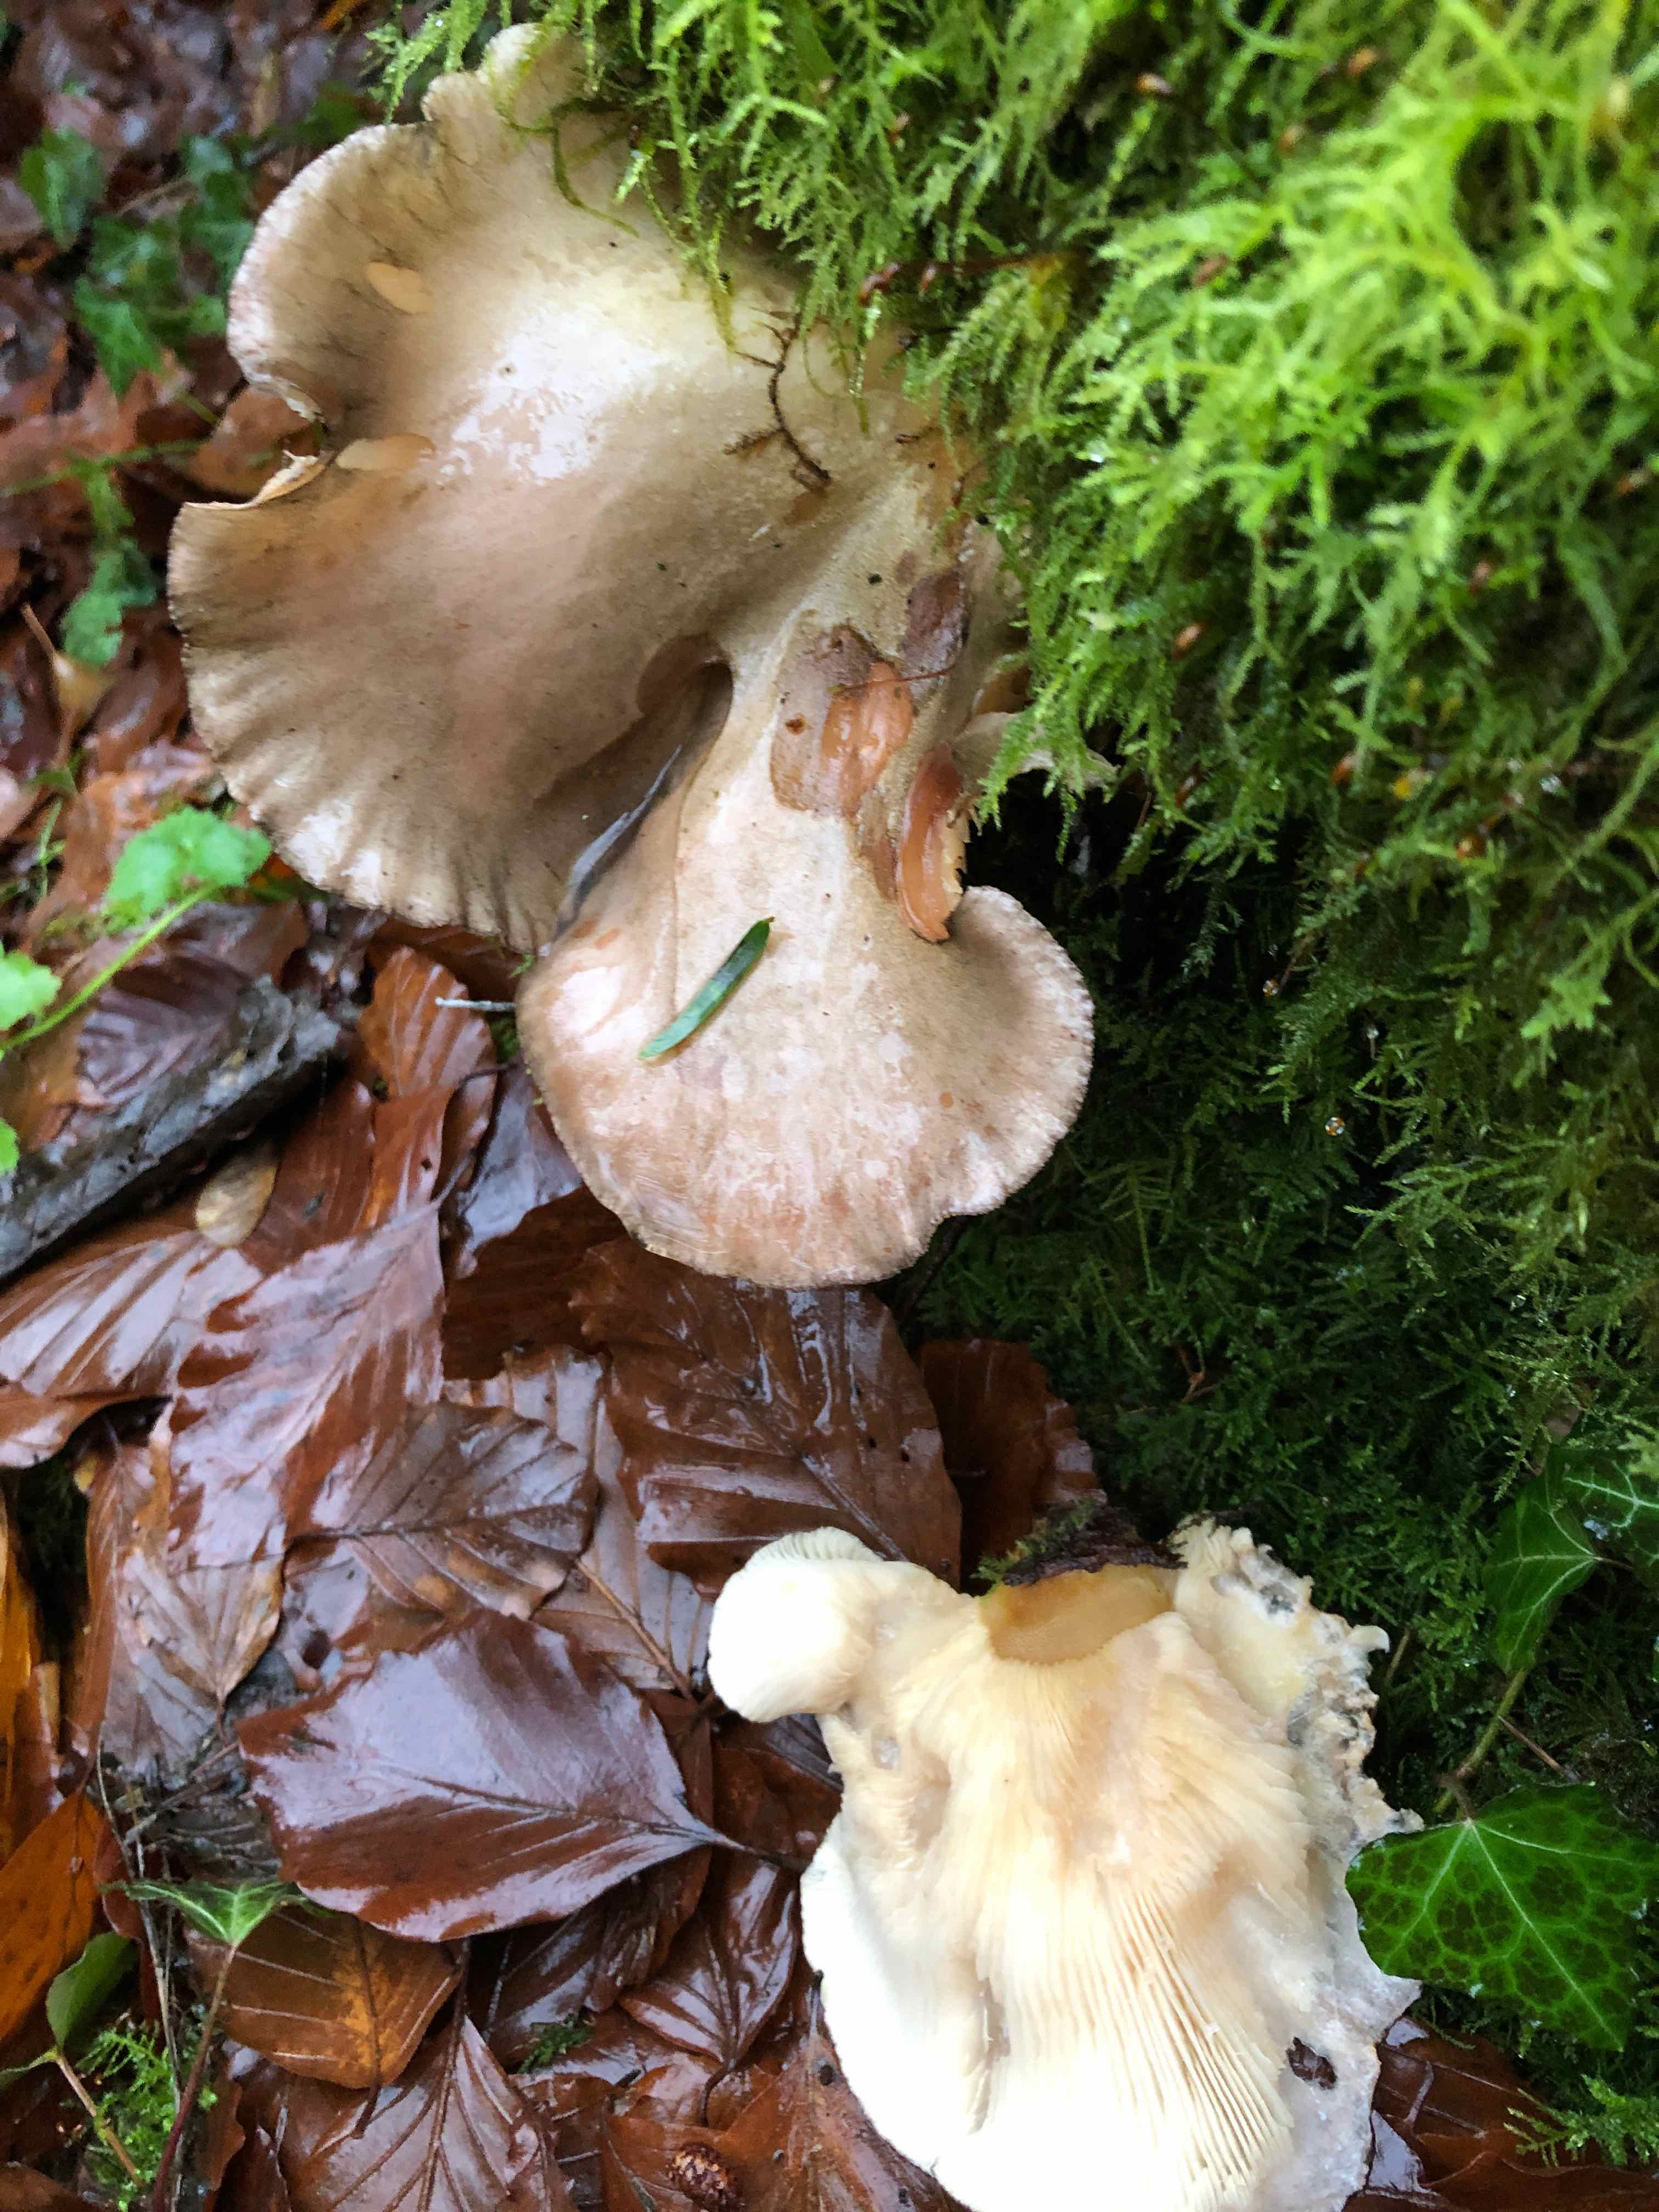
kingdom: Fungi
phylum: Basidiomycota
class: Agaricomycetes
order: Agaricales
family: Sarcomyxaceae
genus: Sarcomyxa
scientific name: Sarcomyxa serotina
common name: gummihat
